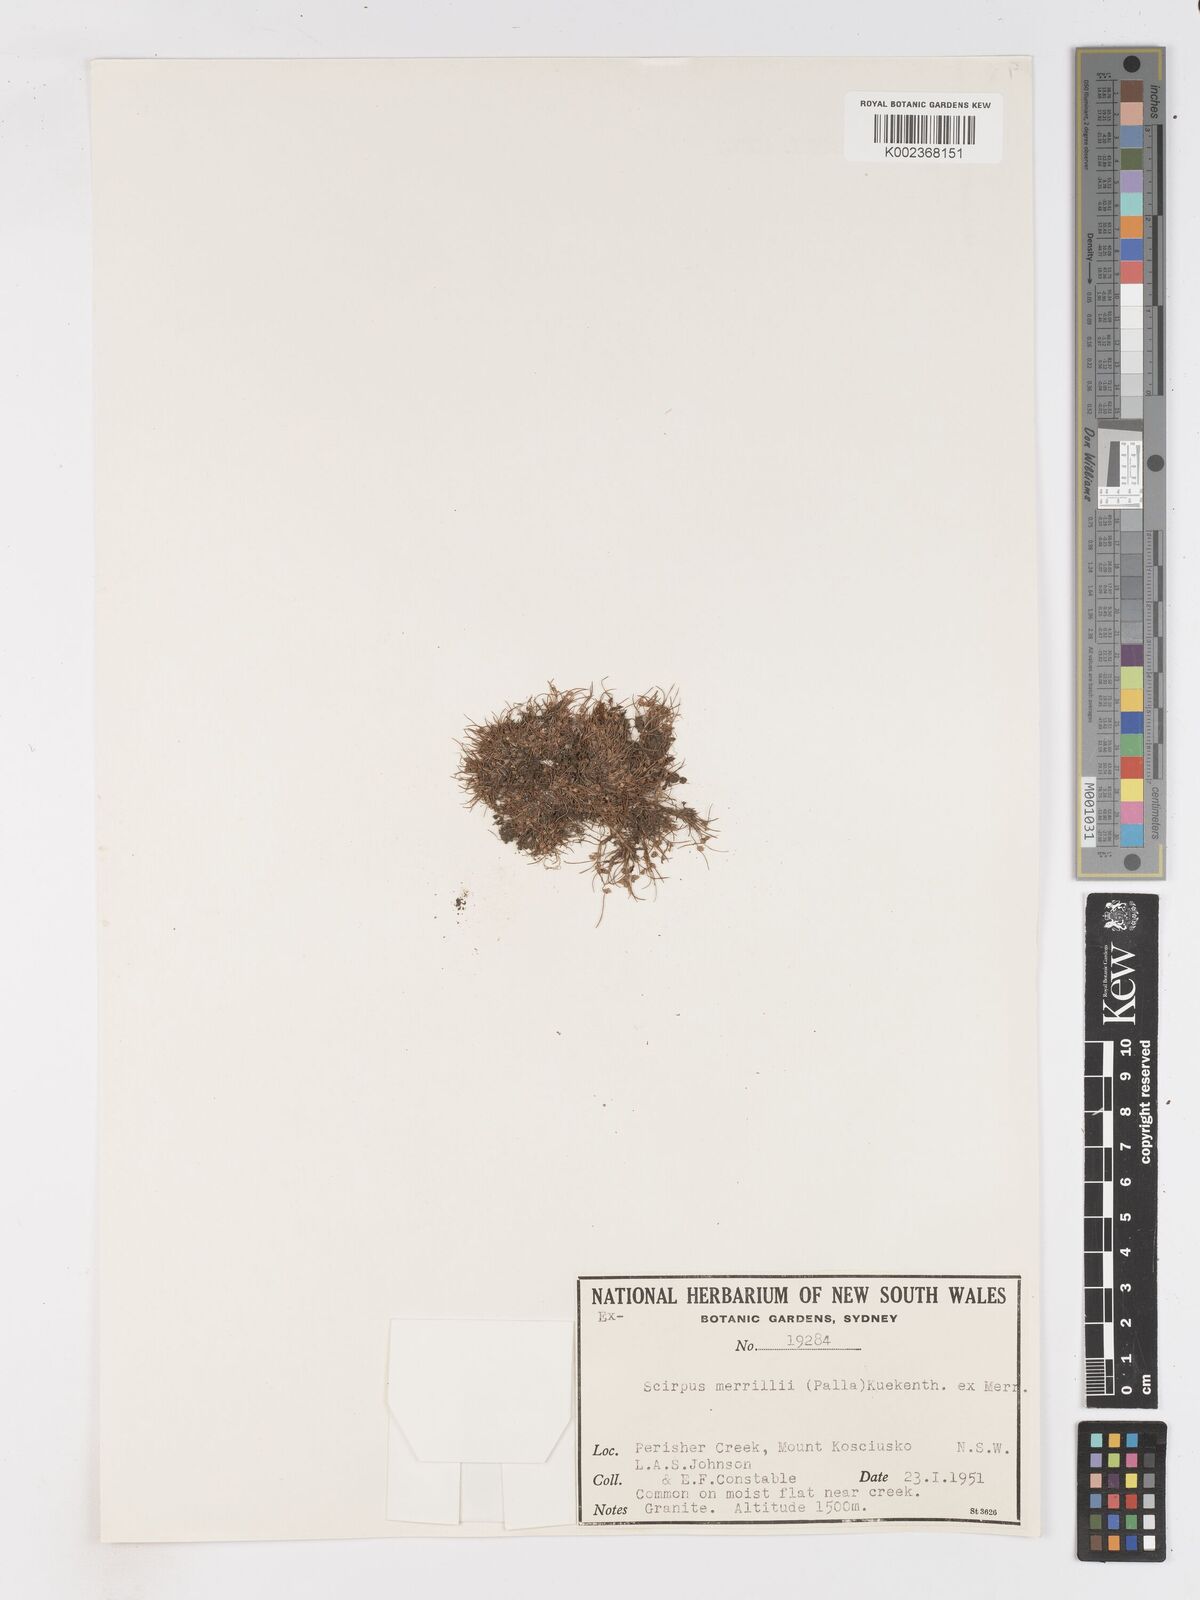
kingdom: Plantae
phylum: Tracheophyta
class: Liliopsida
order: Poales
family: Cyperaceae
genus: Isolepis
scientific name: Isolepis subtilissima
